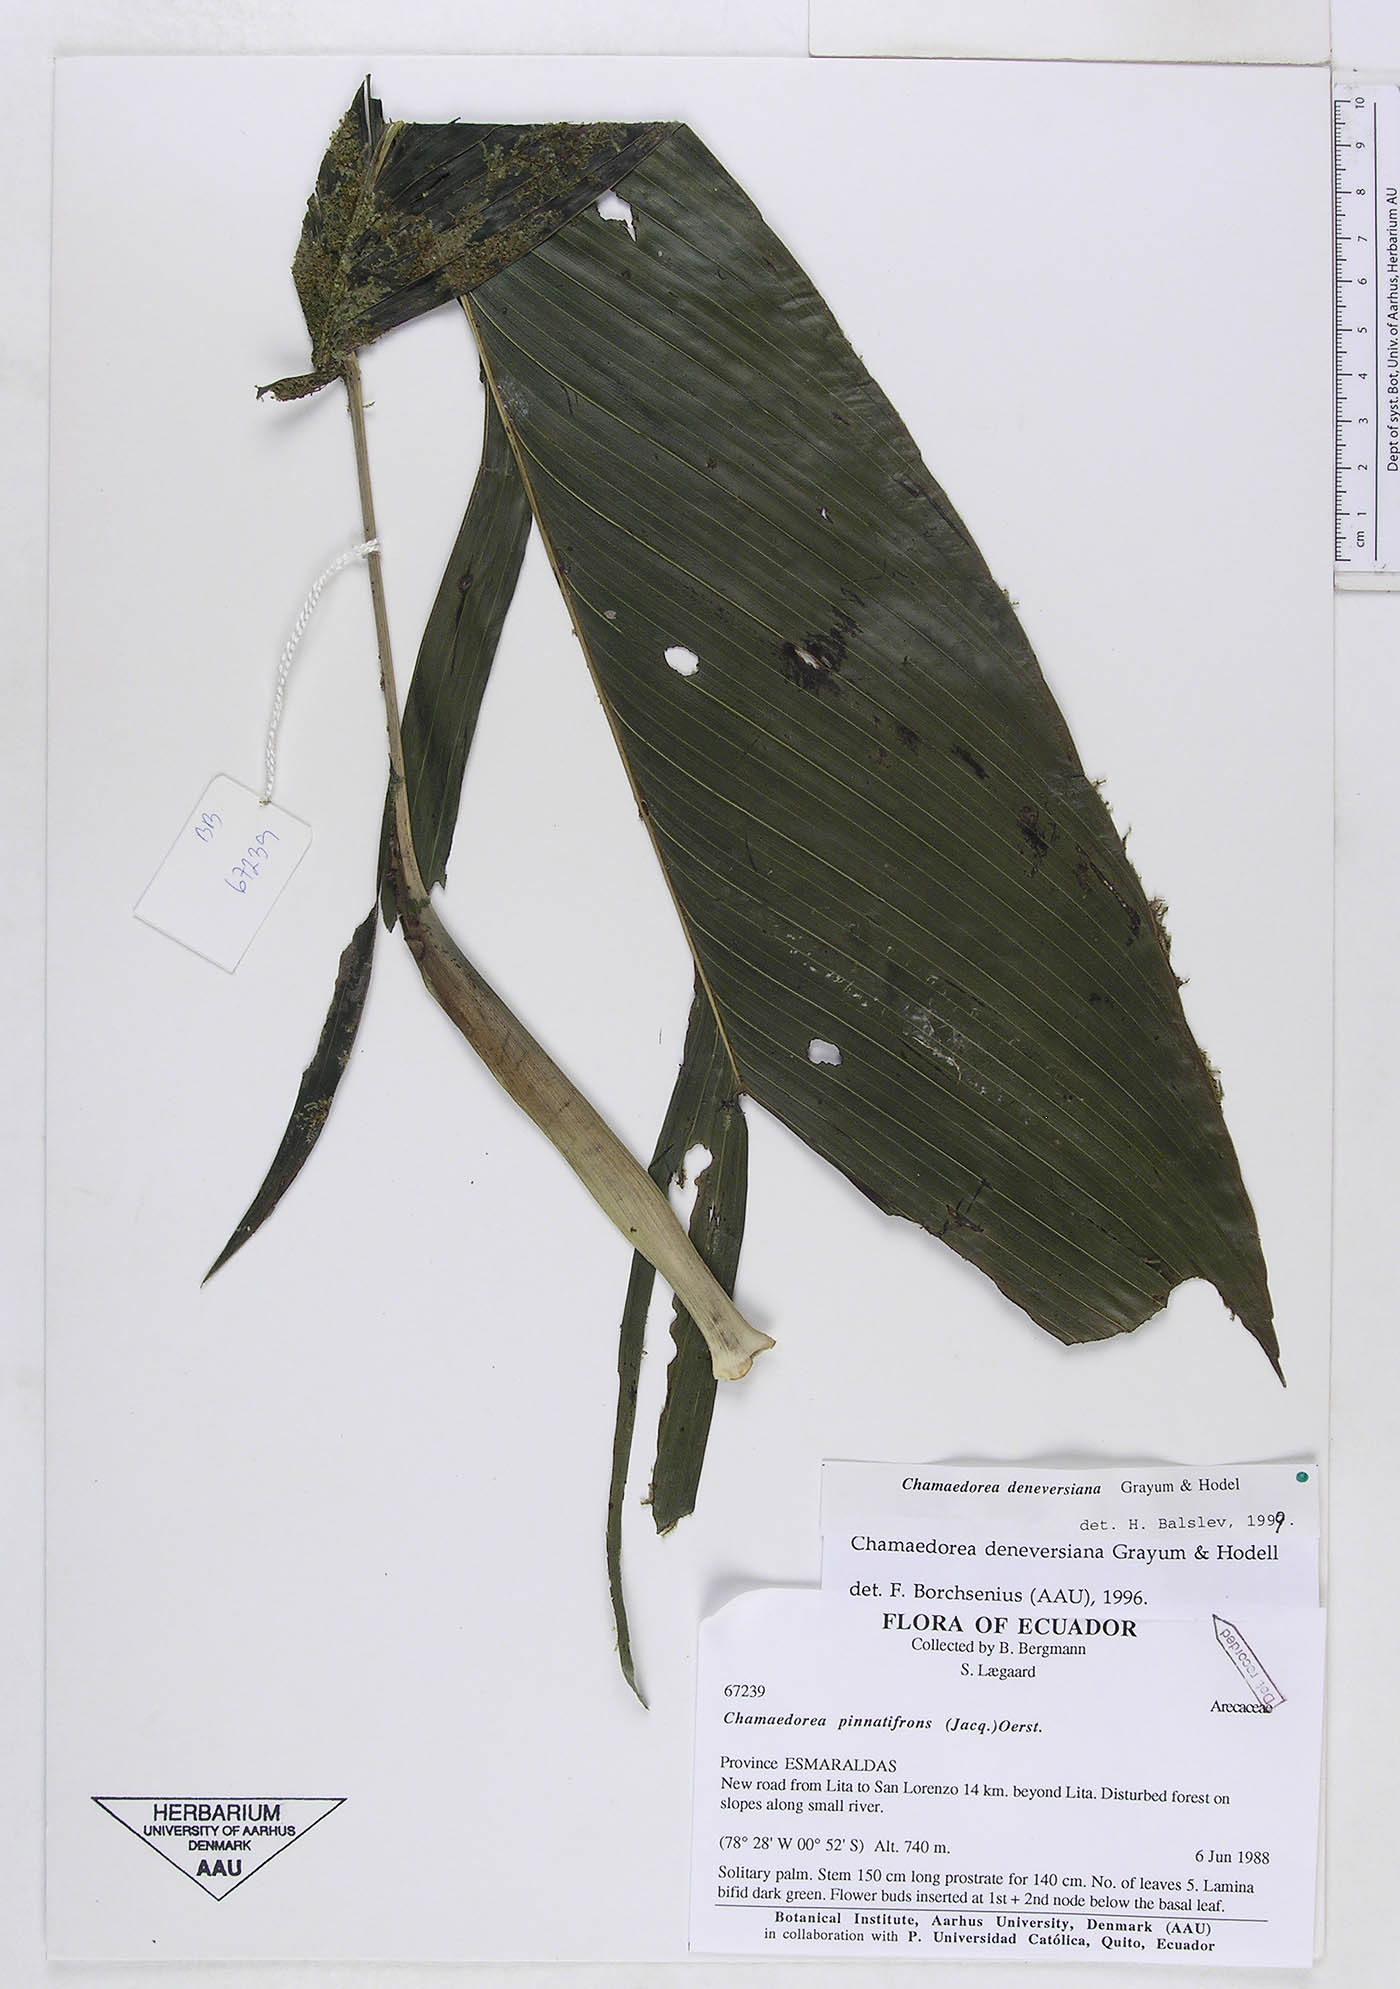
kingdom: Plantae
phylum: Tracheophyta
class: Liliopsida
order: Arecales
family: Arecaceae
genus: Chamaedorea
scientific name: Chamaedorea deneversiana
